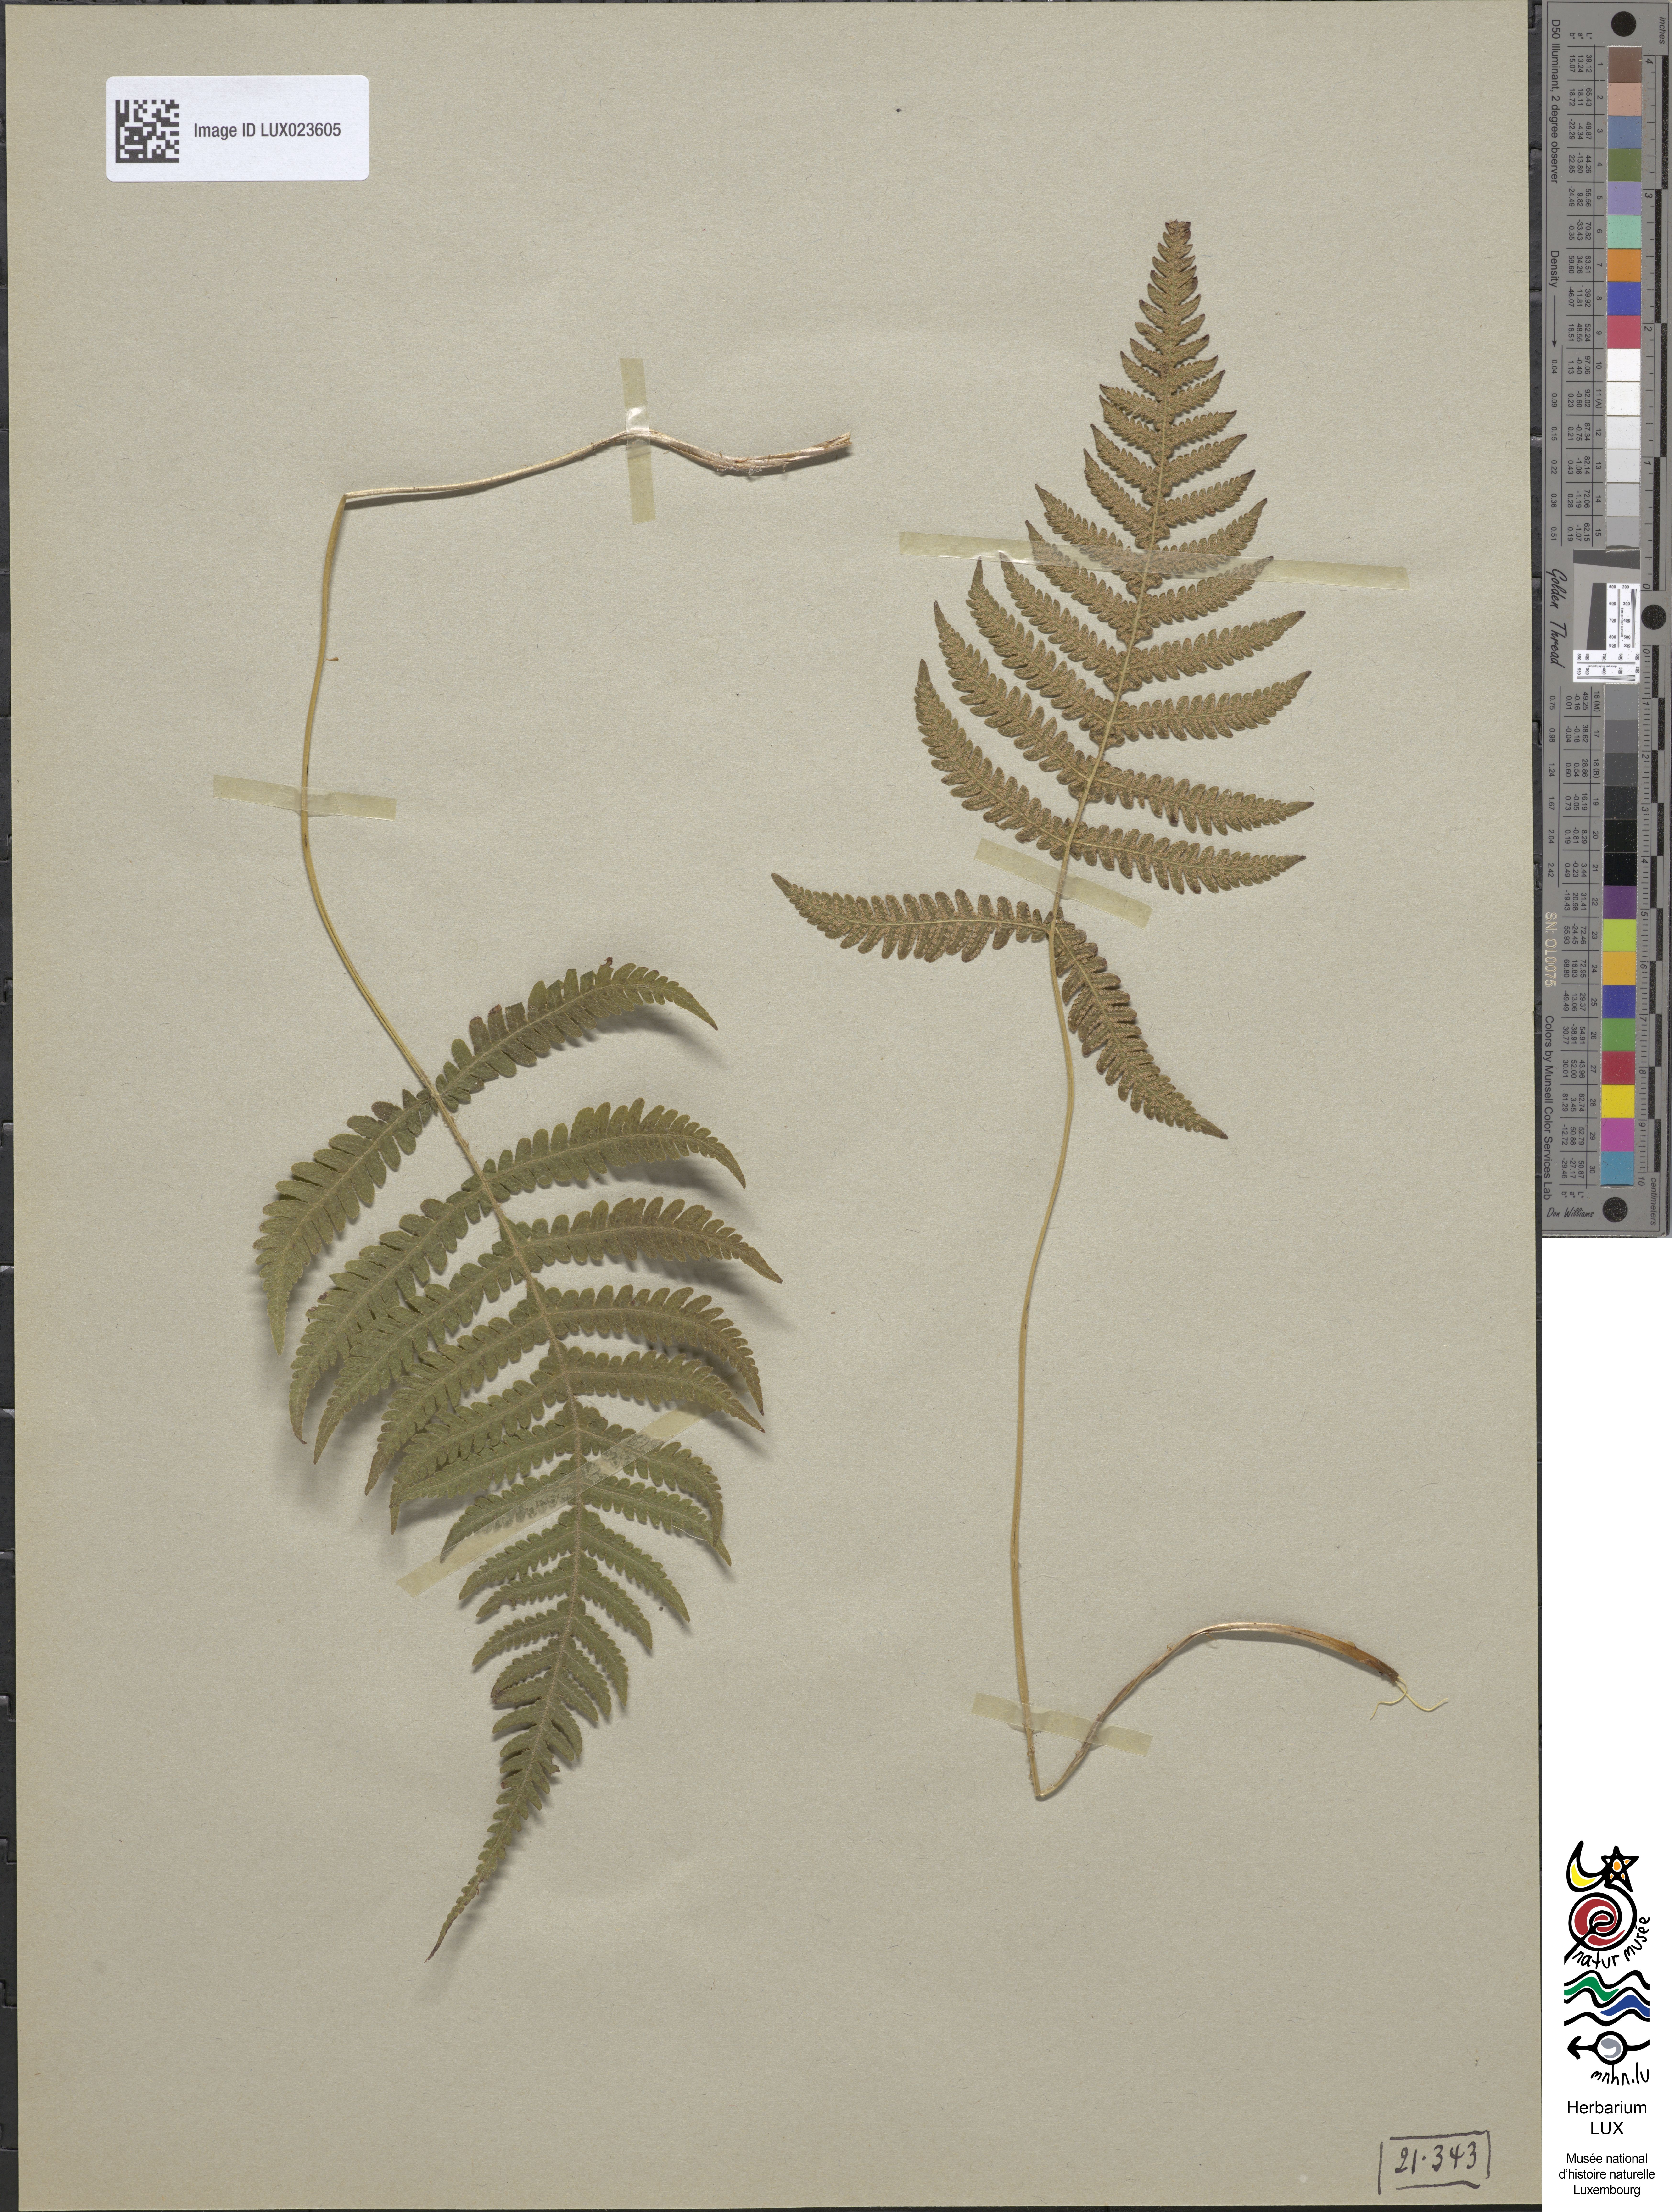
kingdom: Plantae
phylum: Tracheophyta
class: Polypodiopsida
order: Polypodiales
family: Thelypteridaceae
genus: Phegopteris
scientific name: Phegopteris connectilis
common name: Beech fern
